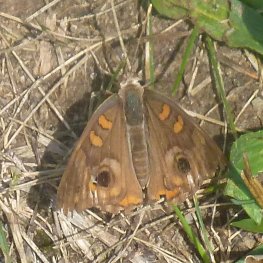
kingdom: Animalia
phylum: Arthropoda
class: Insecta
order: Lepidoptera
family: Nymphalidae
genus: Junonia
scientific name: Junonia coenia
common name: Common Buckeye
